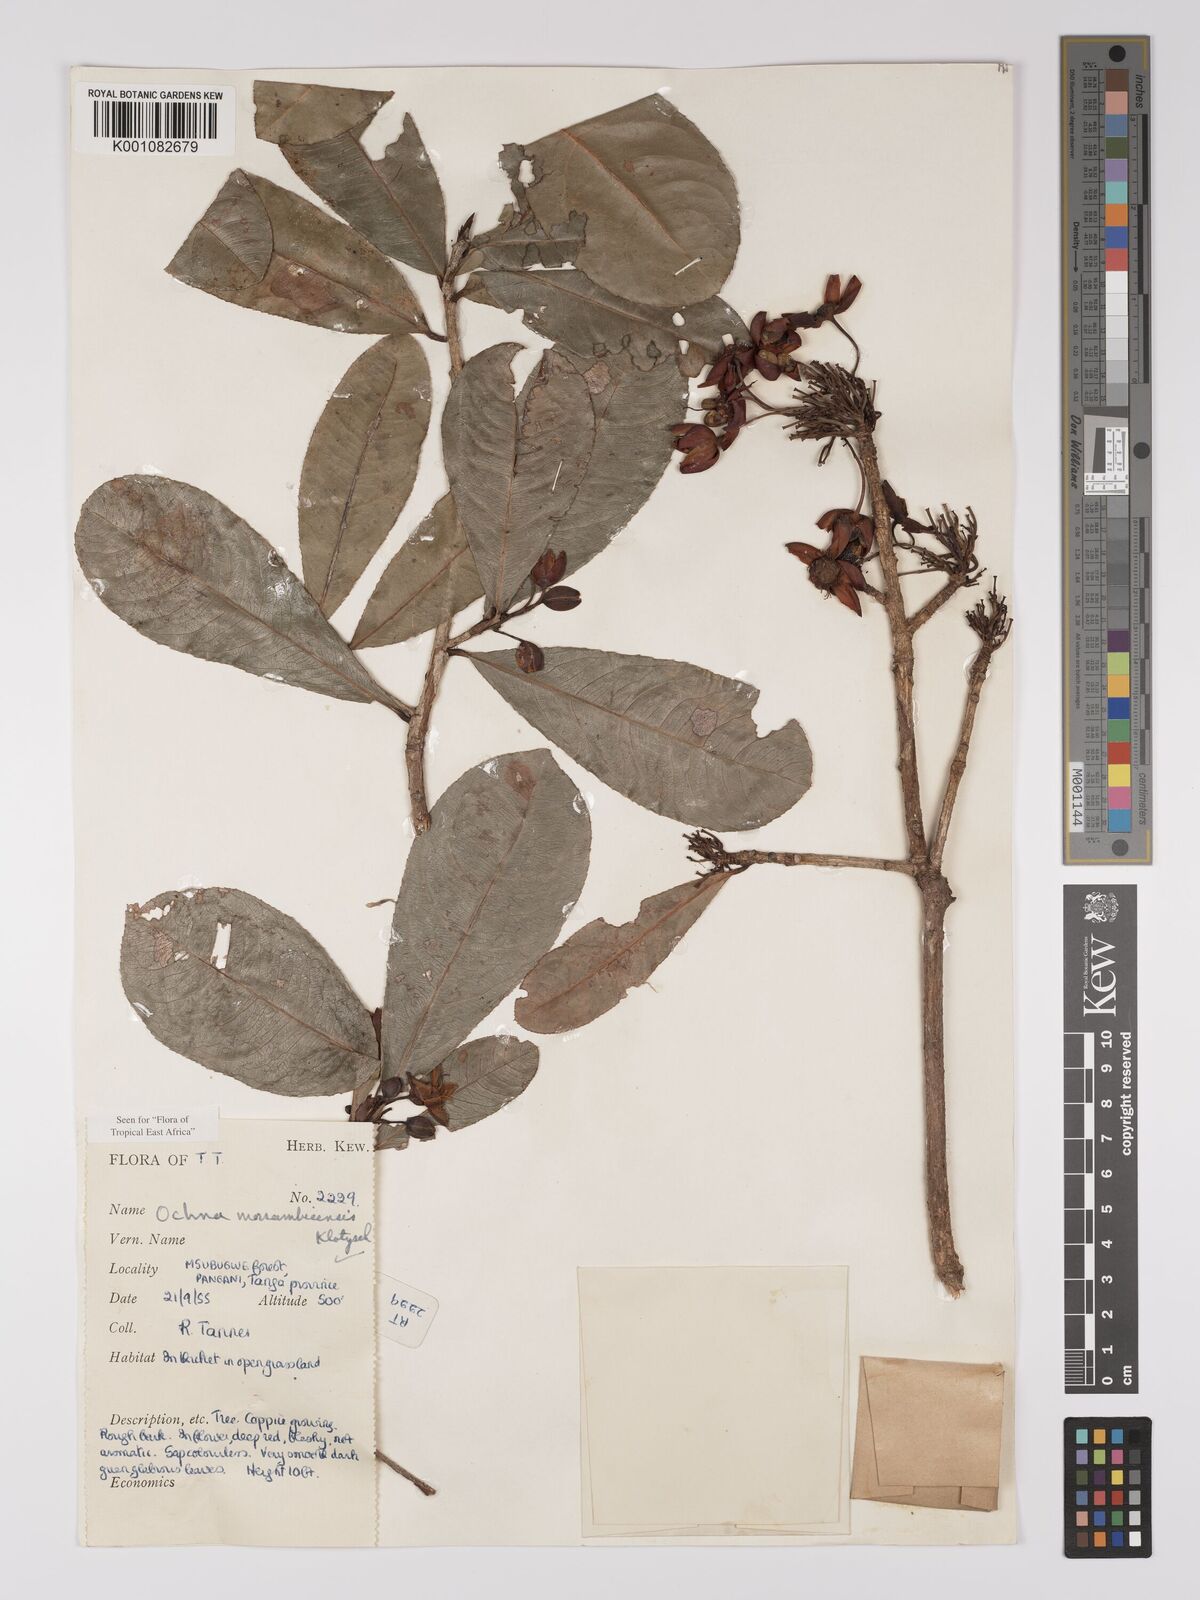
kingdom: Plantae
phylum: Tracheophyta
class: Magnoliopsida
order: Malpighiales
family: Ochnaceae
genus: Ochna
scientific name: Ochna atropurpurea
